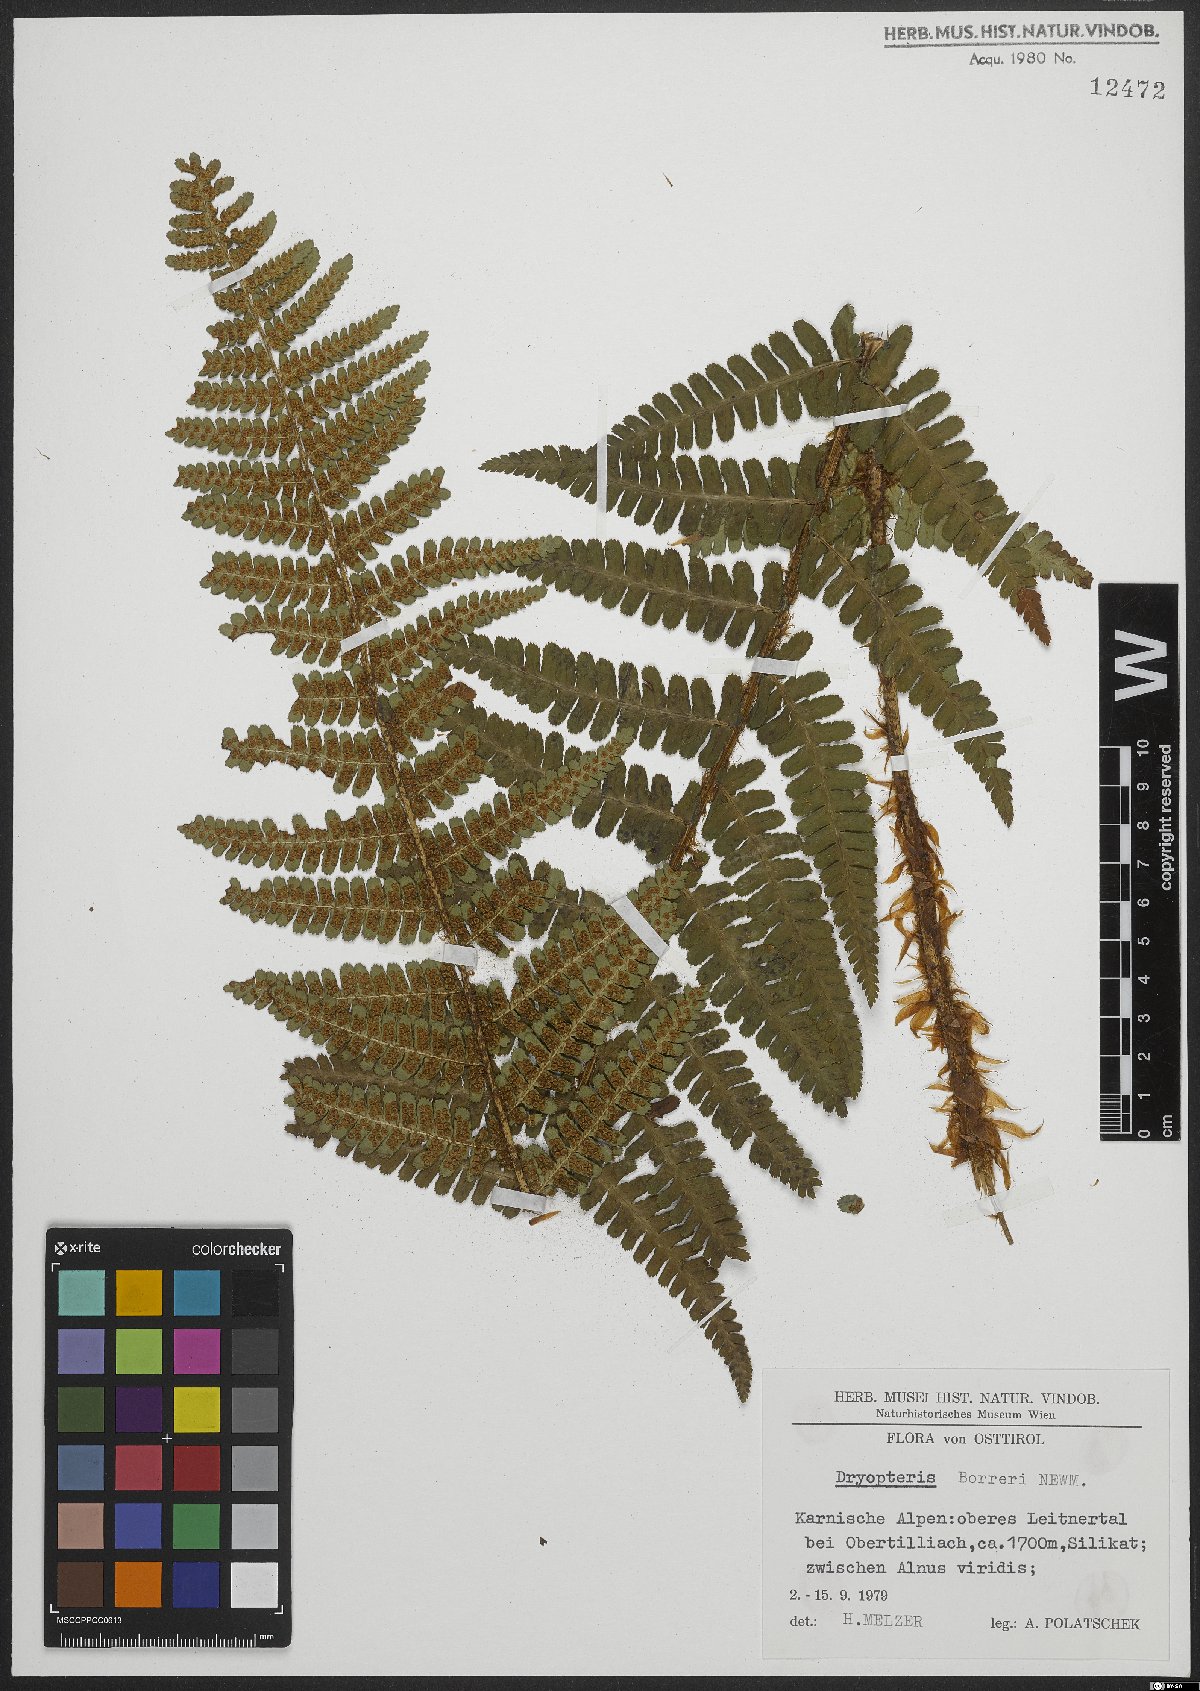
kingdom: Plantae
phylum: Tracheophyta
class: Polypodiopsida
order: Polypodiales
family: Dryopteridaceae
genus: Dryopteris
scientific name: Dryopteris cambrensis
